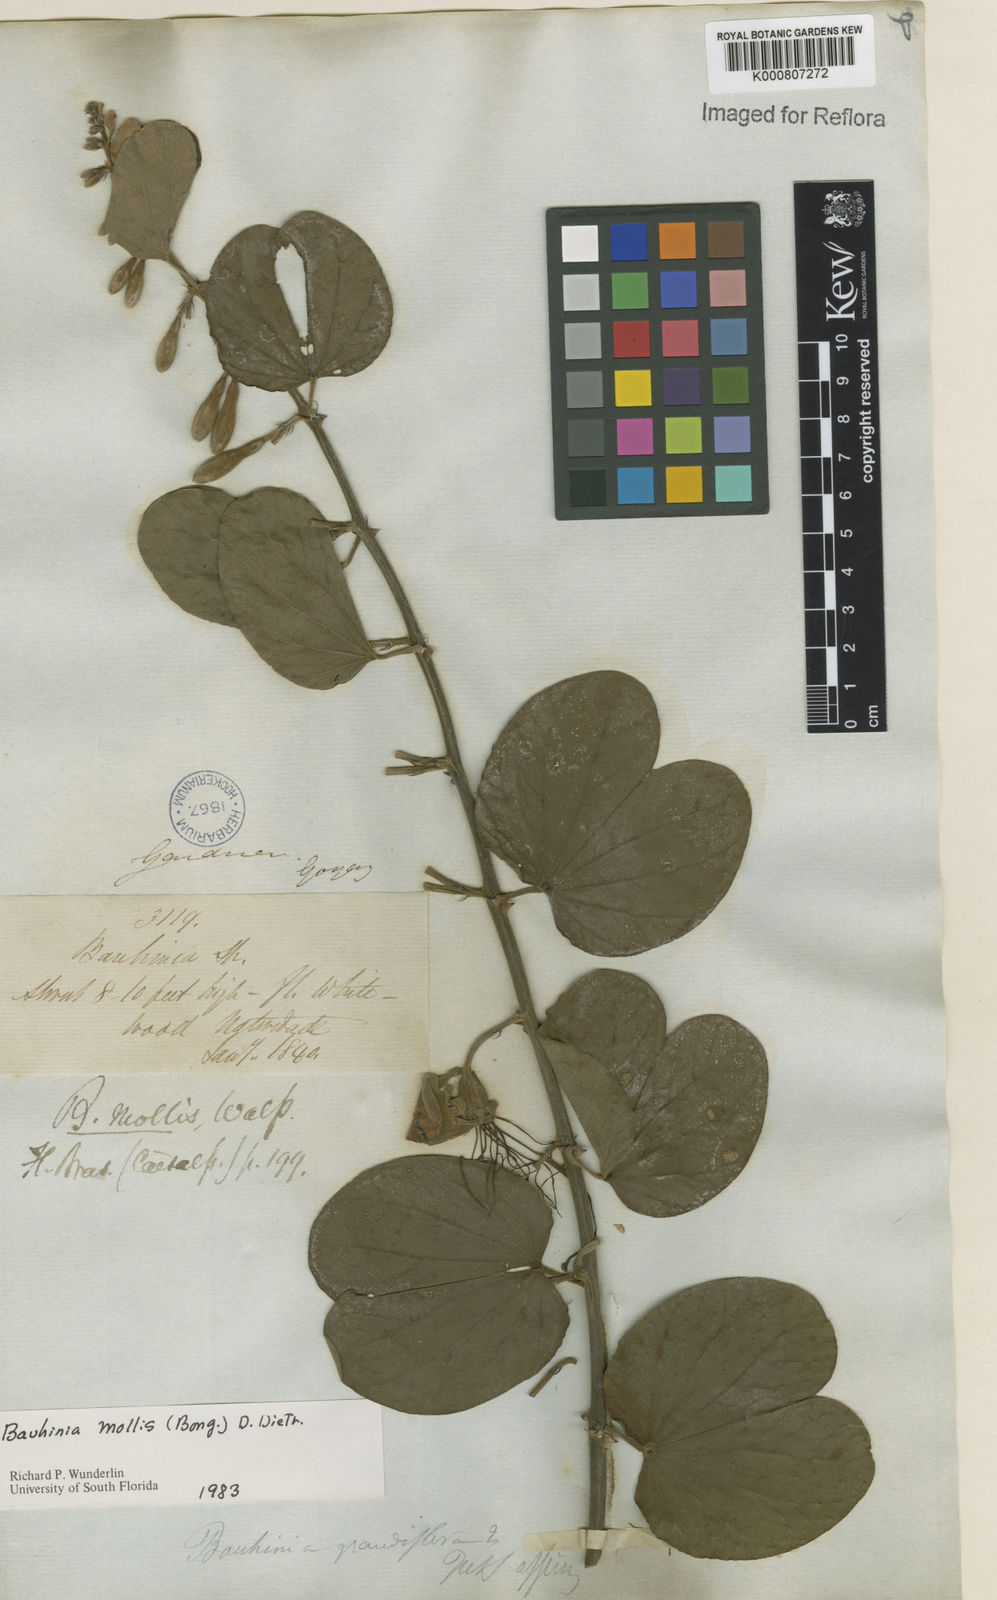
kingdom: Plantae
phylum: Tracheophyta
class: Magnoliopsida
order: Fabales
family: Fabaceae
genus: Bauhinia
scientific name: Bauhinia mollis
